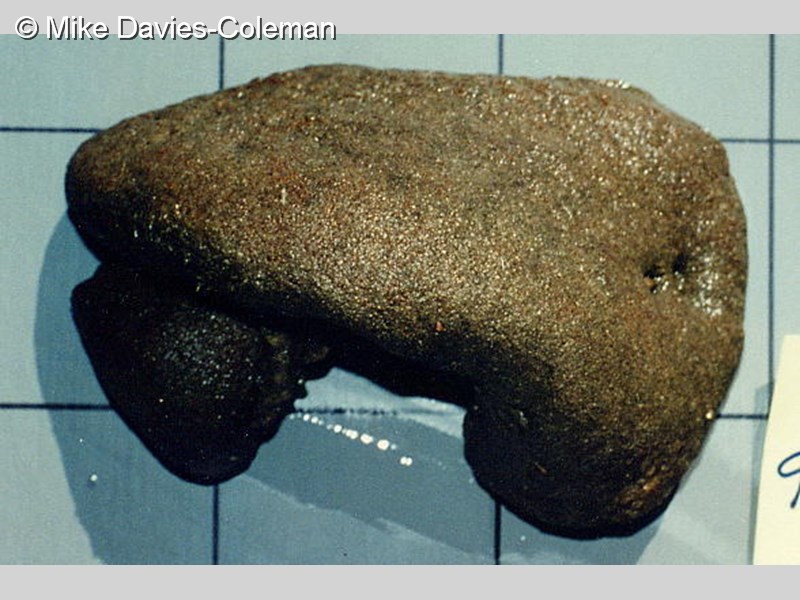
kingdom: Animalia
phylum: Chordata
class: Ascidiacea
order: Aplousobranchia
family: Polyclinidae
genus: Polyclinum
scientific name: Polyclinum
